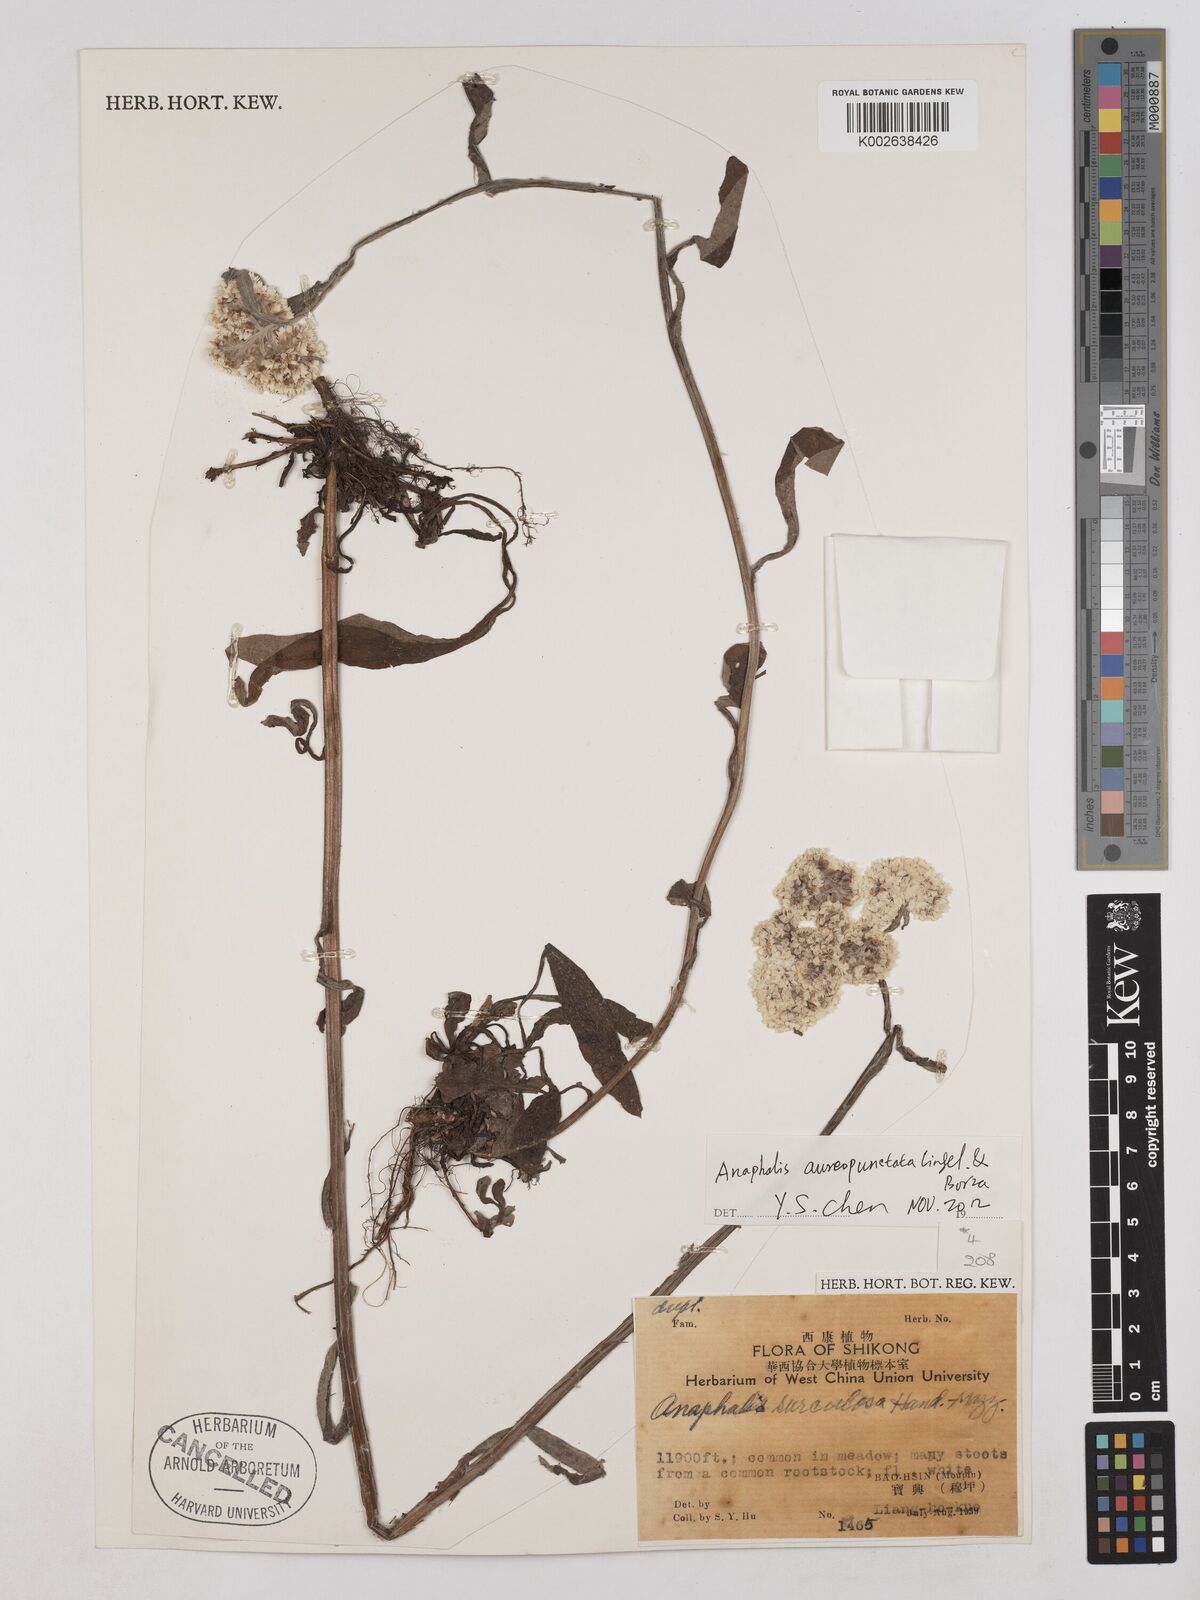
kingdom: Plantae
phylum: Tracheophyta
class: Magnoliopsida
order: Asterales
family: Asteraceae
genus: Anaphalis
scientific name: Anaphalis surculosa
